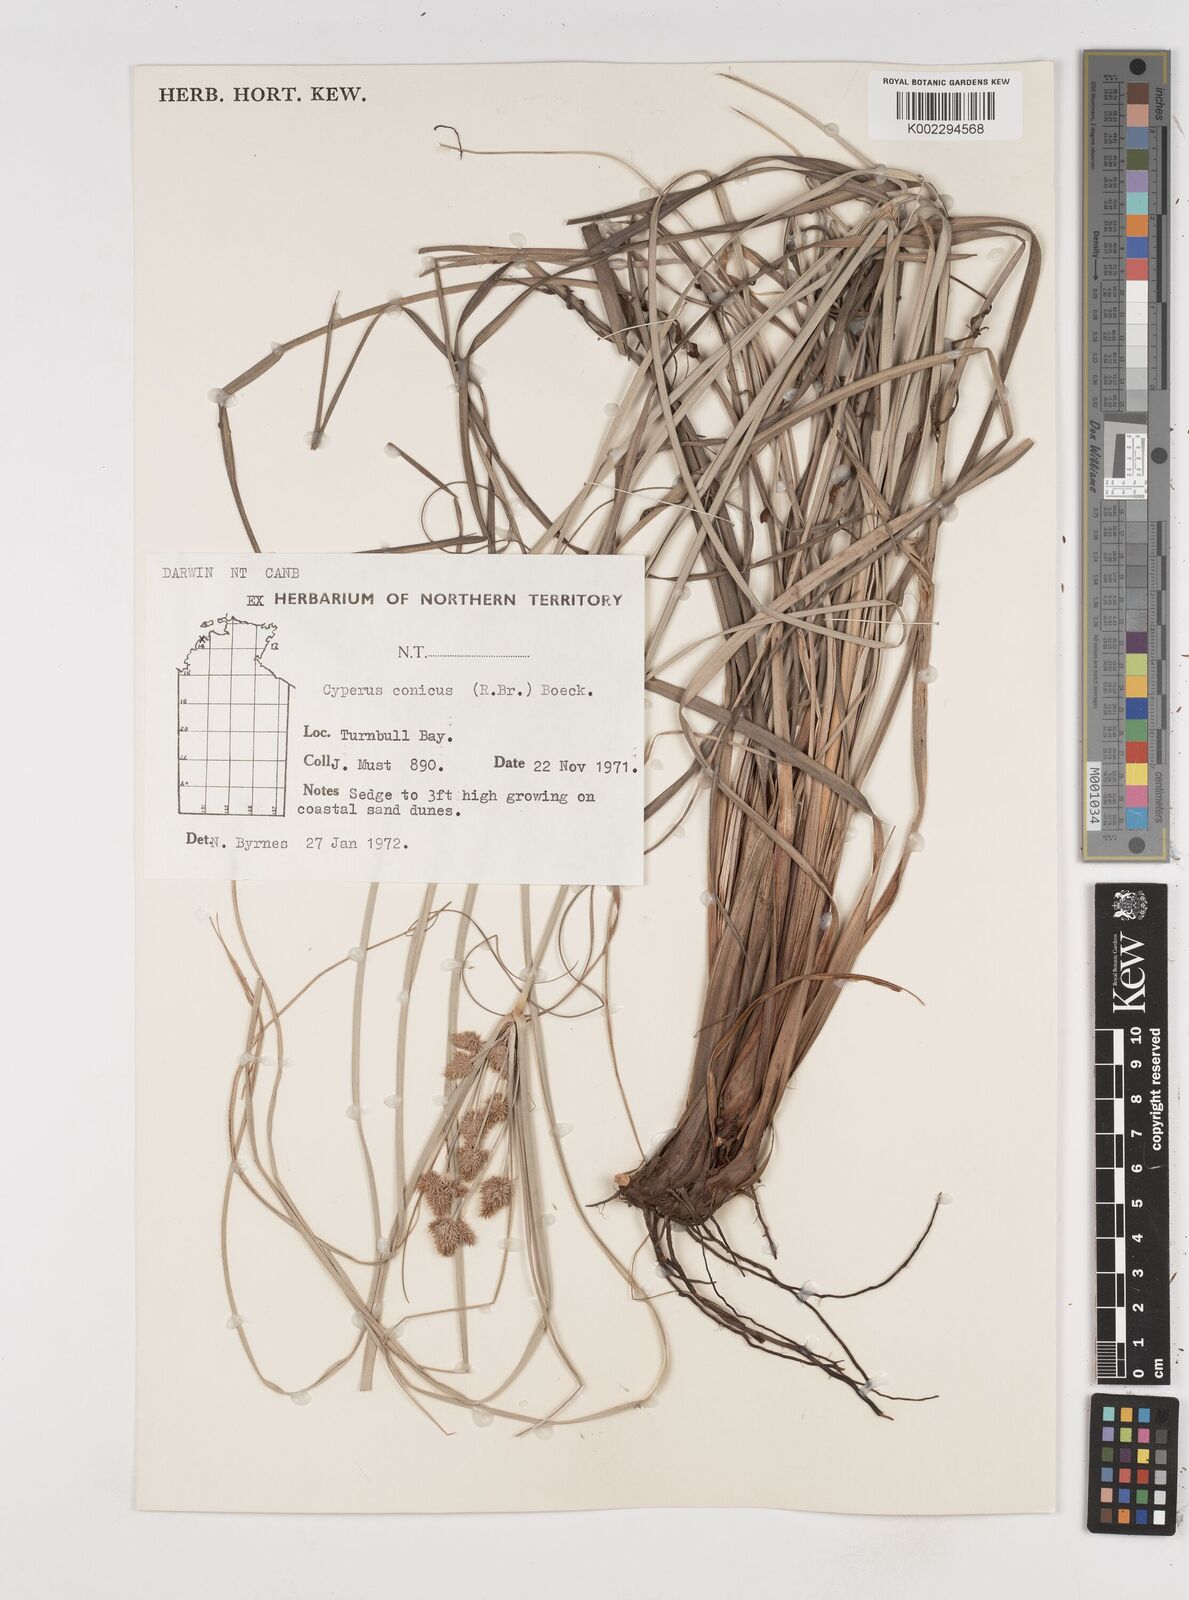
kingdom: Plantae
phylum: Tracheophyta
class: Liliopsida
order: Poales
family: Cyperaceae
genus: Cyperus
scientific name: Cyperus conicus
